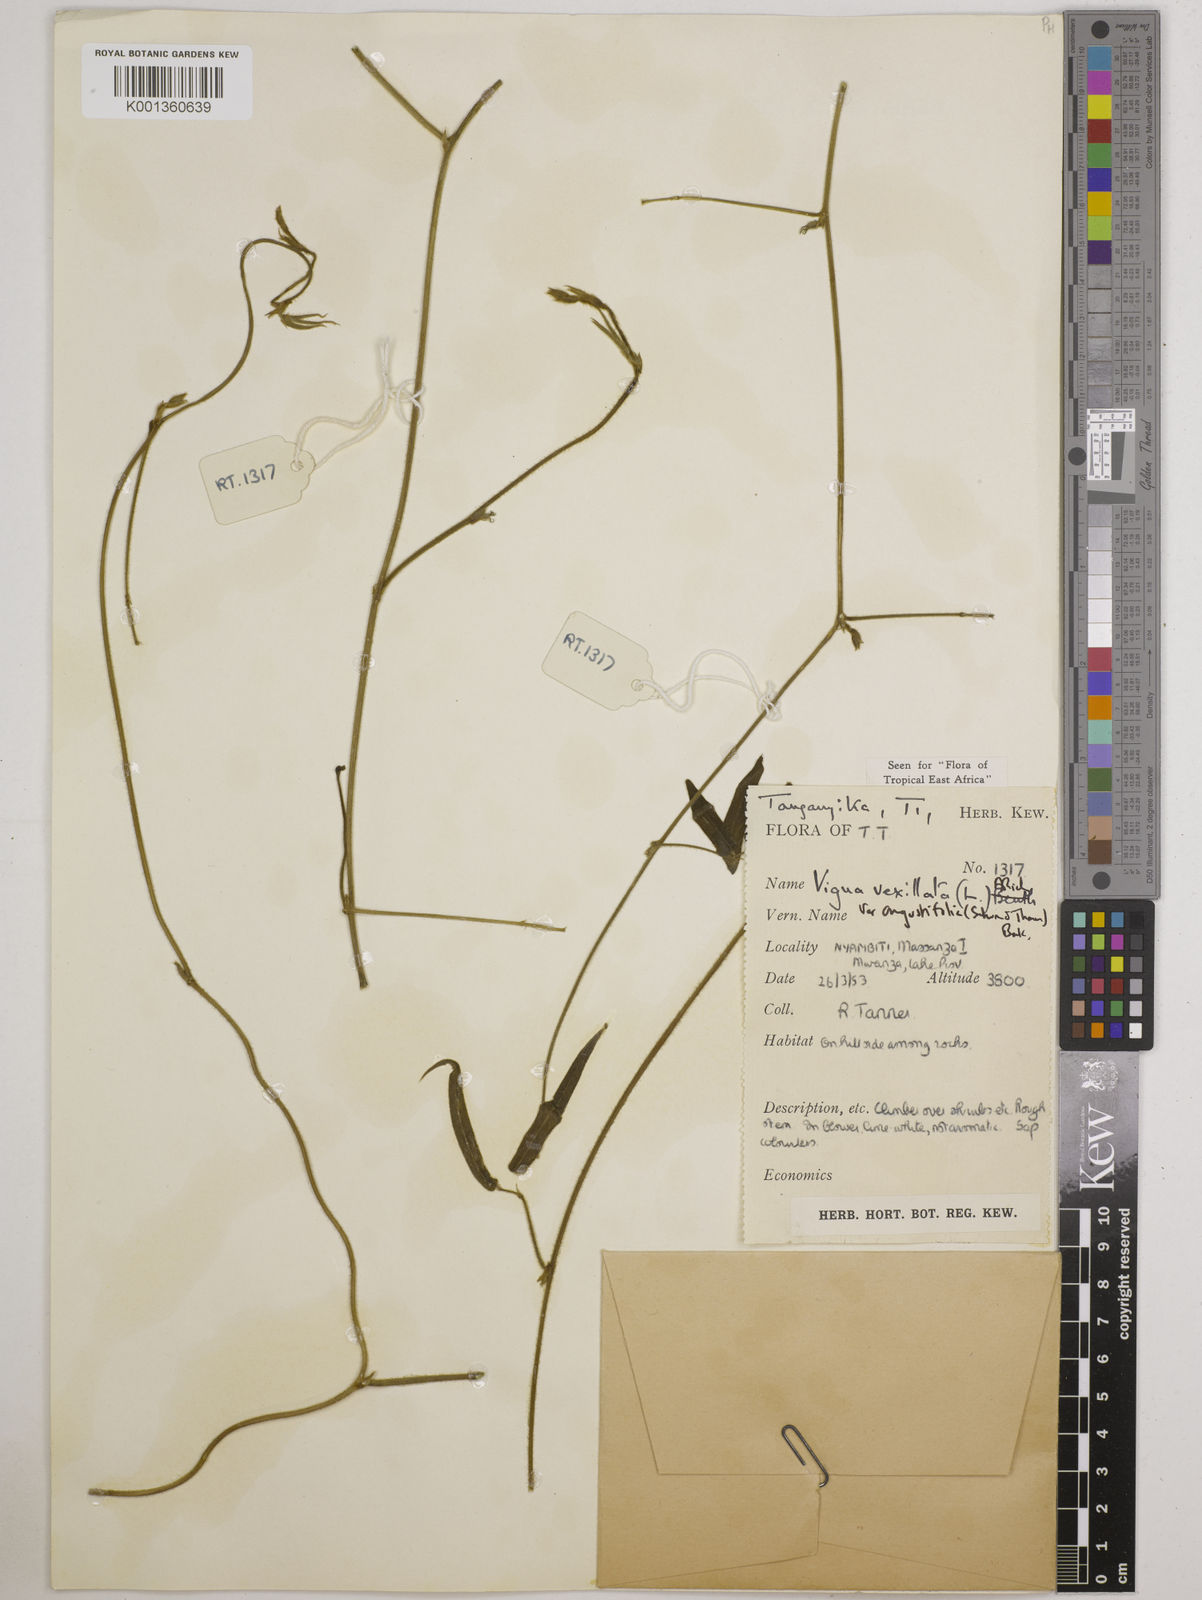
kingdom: Plantae
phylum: Tracheophyta
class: Magnoliopsida
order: Fabales
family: Fabaceae
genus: Vigna
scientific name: Vigna vexillata
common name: Zombi pea
